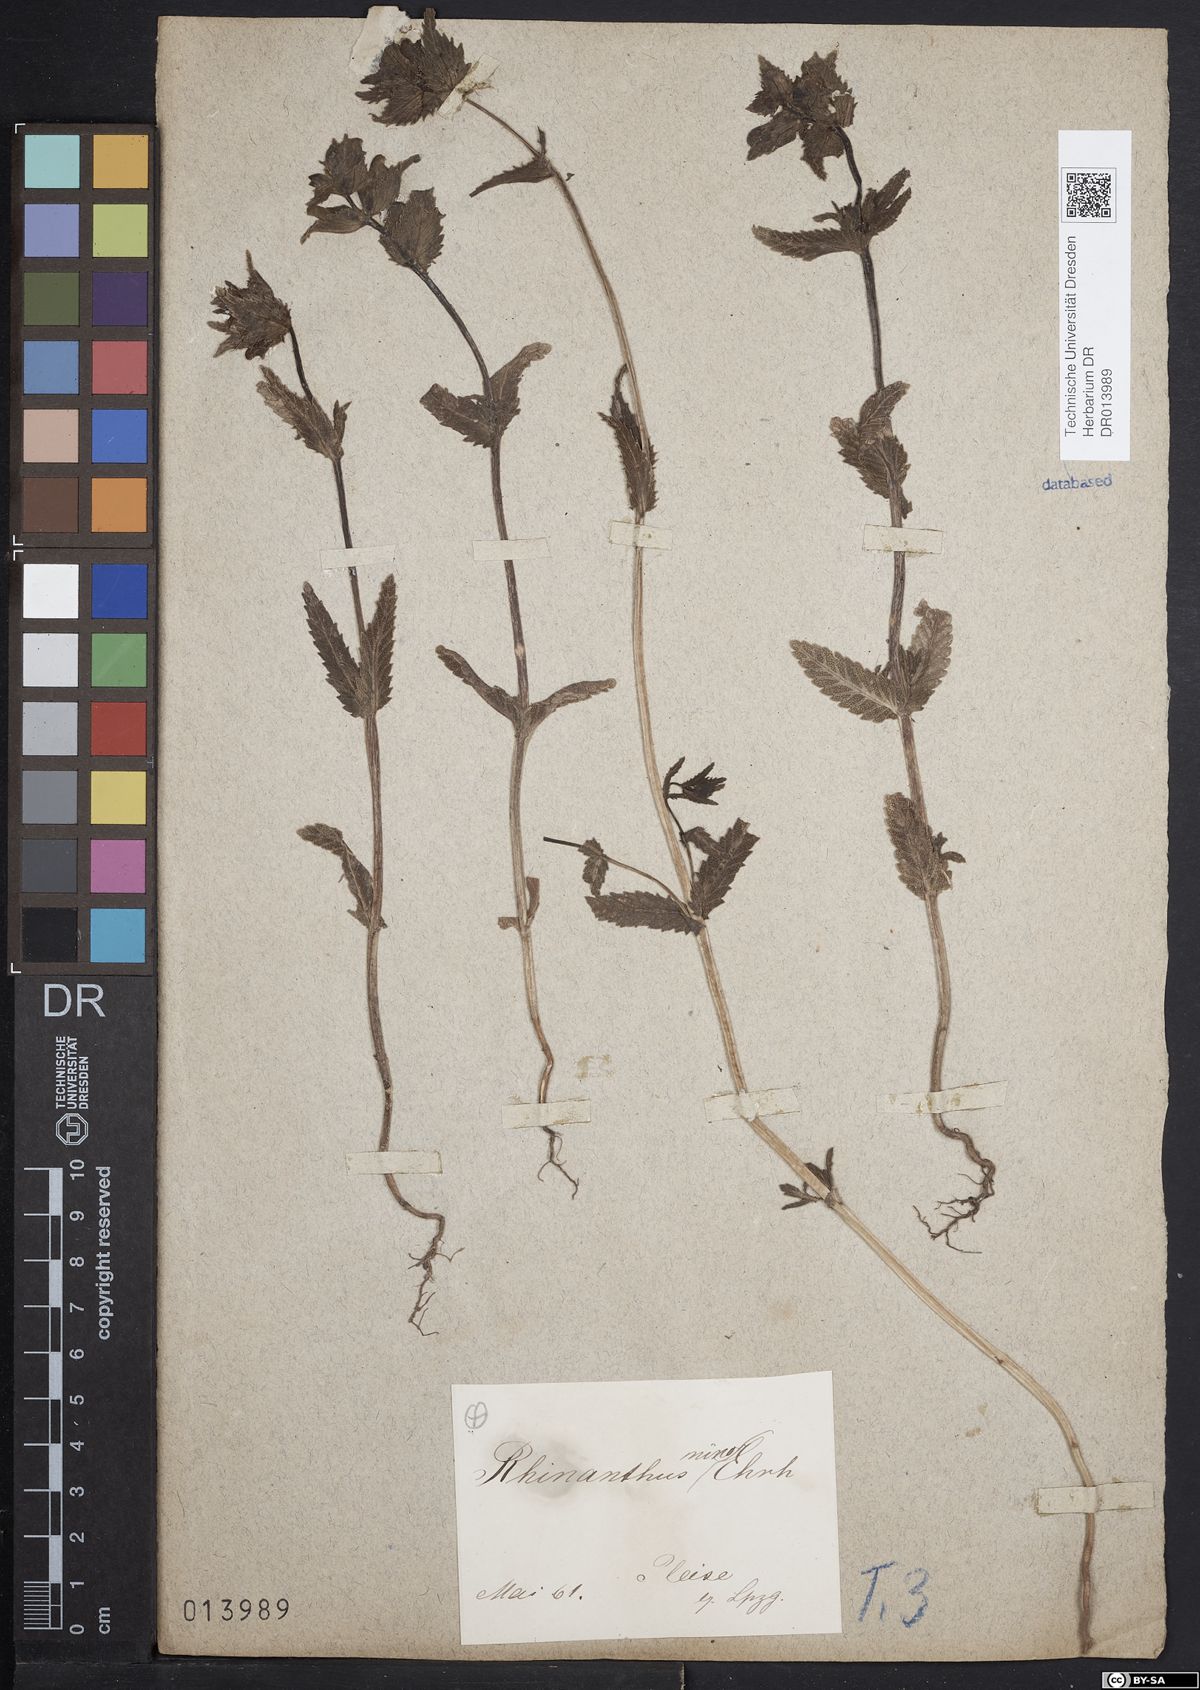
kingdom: Plantae
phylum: Tracheophyta
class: Magnoliopsida
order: Lamiales
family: Orobanchaceae
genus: Rhinanthus
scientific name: Rhinanthus minor
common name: Yellow-rattle
